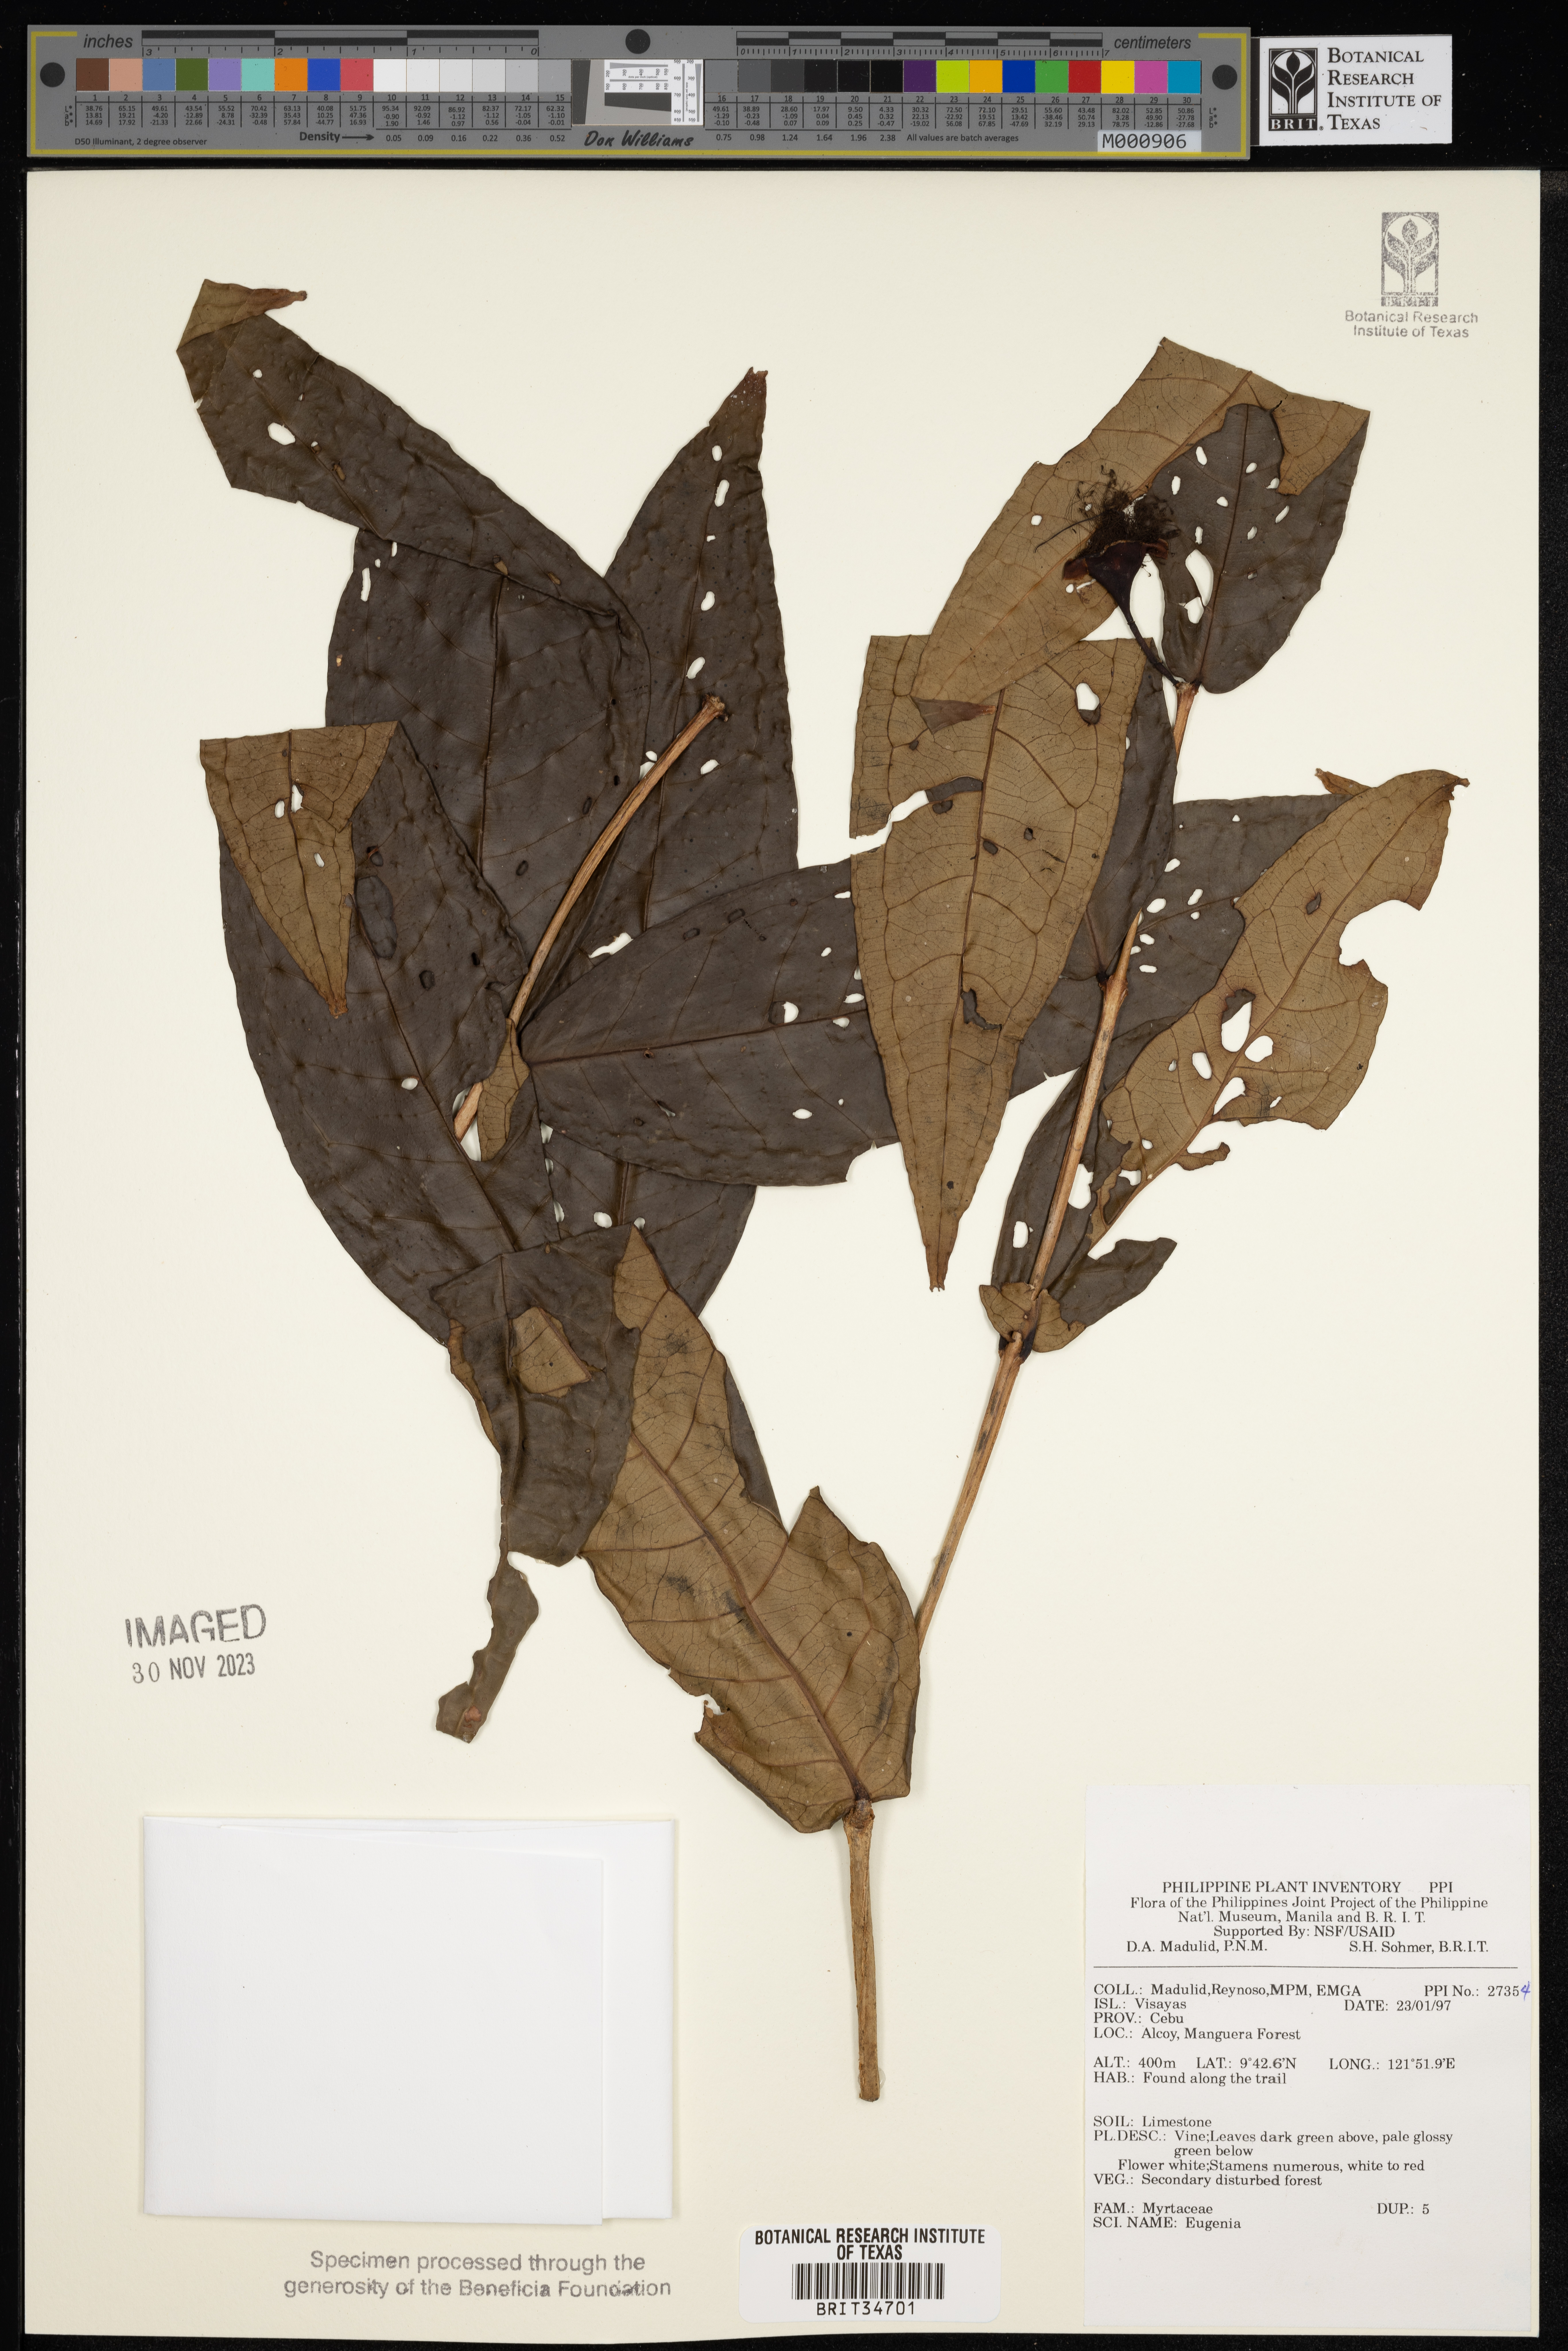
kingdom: Plantae
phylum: Tracheophyta
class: Magnoliopsida
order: Myrtales
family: Myrtaceae
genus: Eugenia
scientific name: Eugenia
